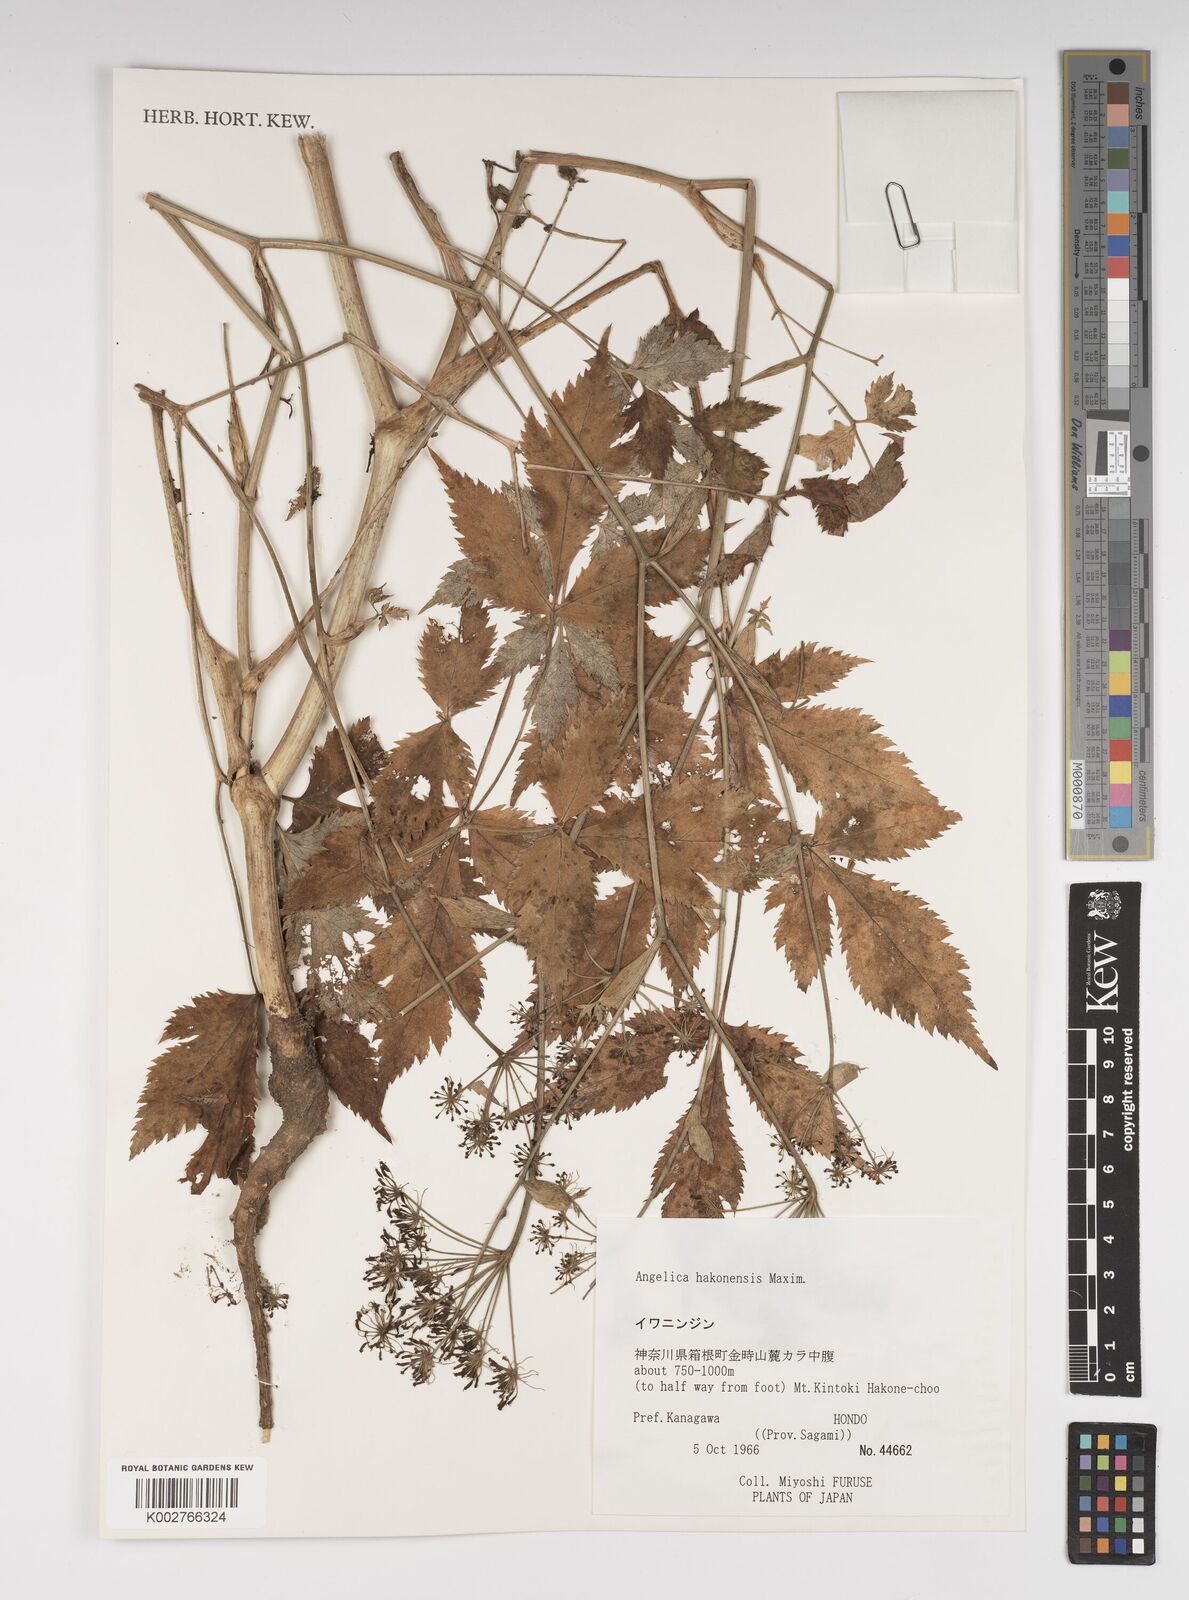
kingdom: Plantae
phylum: Tracheophyta
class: Magnoliopsida
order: Apiales
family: Apiaceae
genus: Angelica
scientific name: Angelica hakonensis
